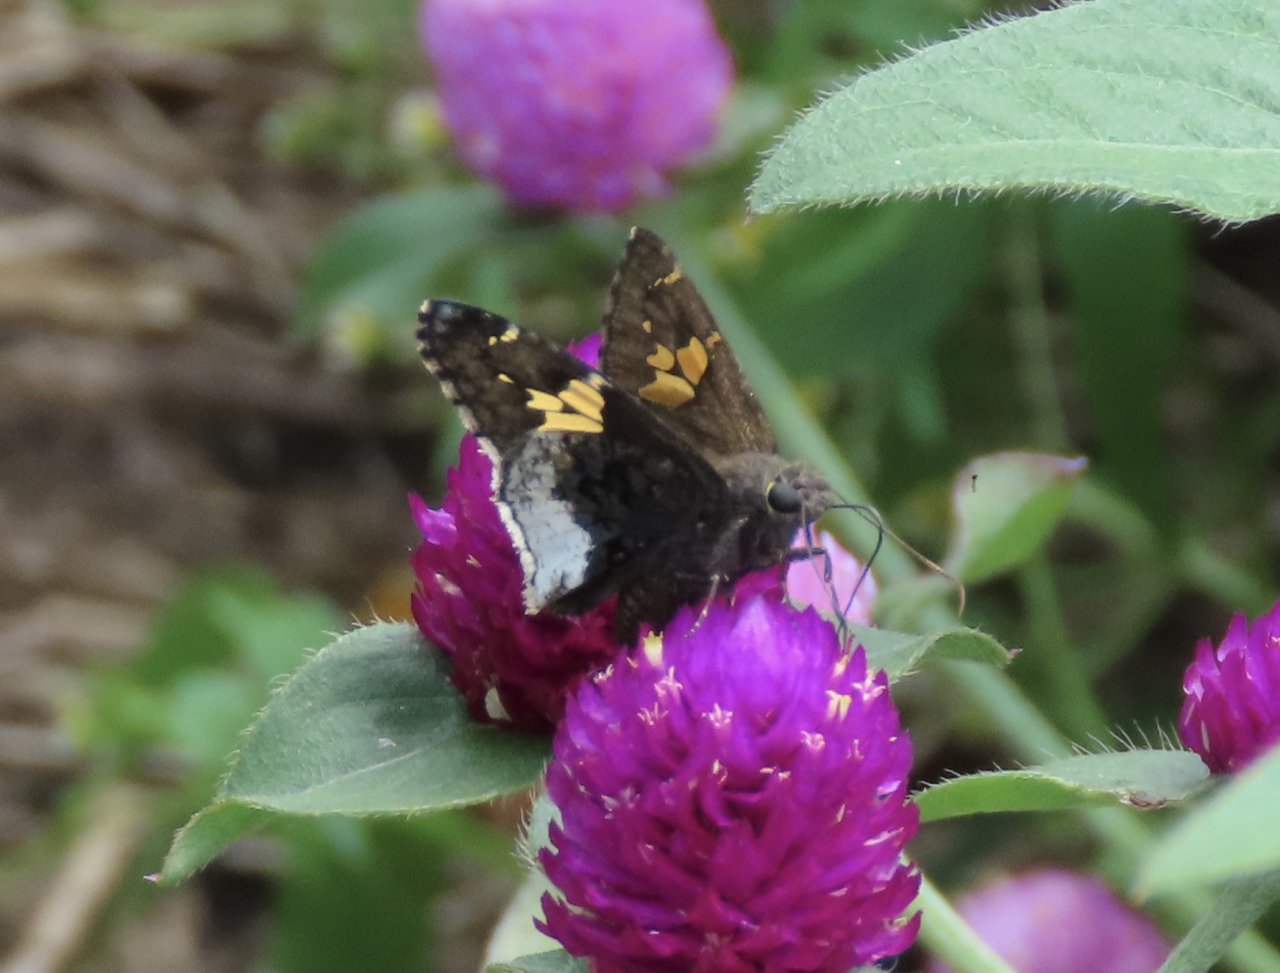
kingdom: Animalia
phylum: Arthropoda
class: Insecta
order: Lepidoptera
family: Hesperiidae
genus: Achalarus
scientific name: Achalarus lyciades
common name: Hoary Edge
